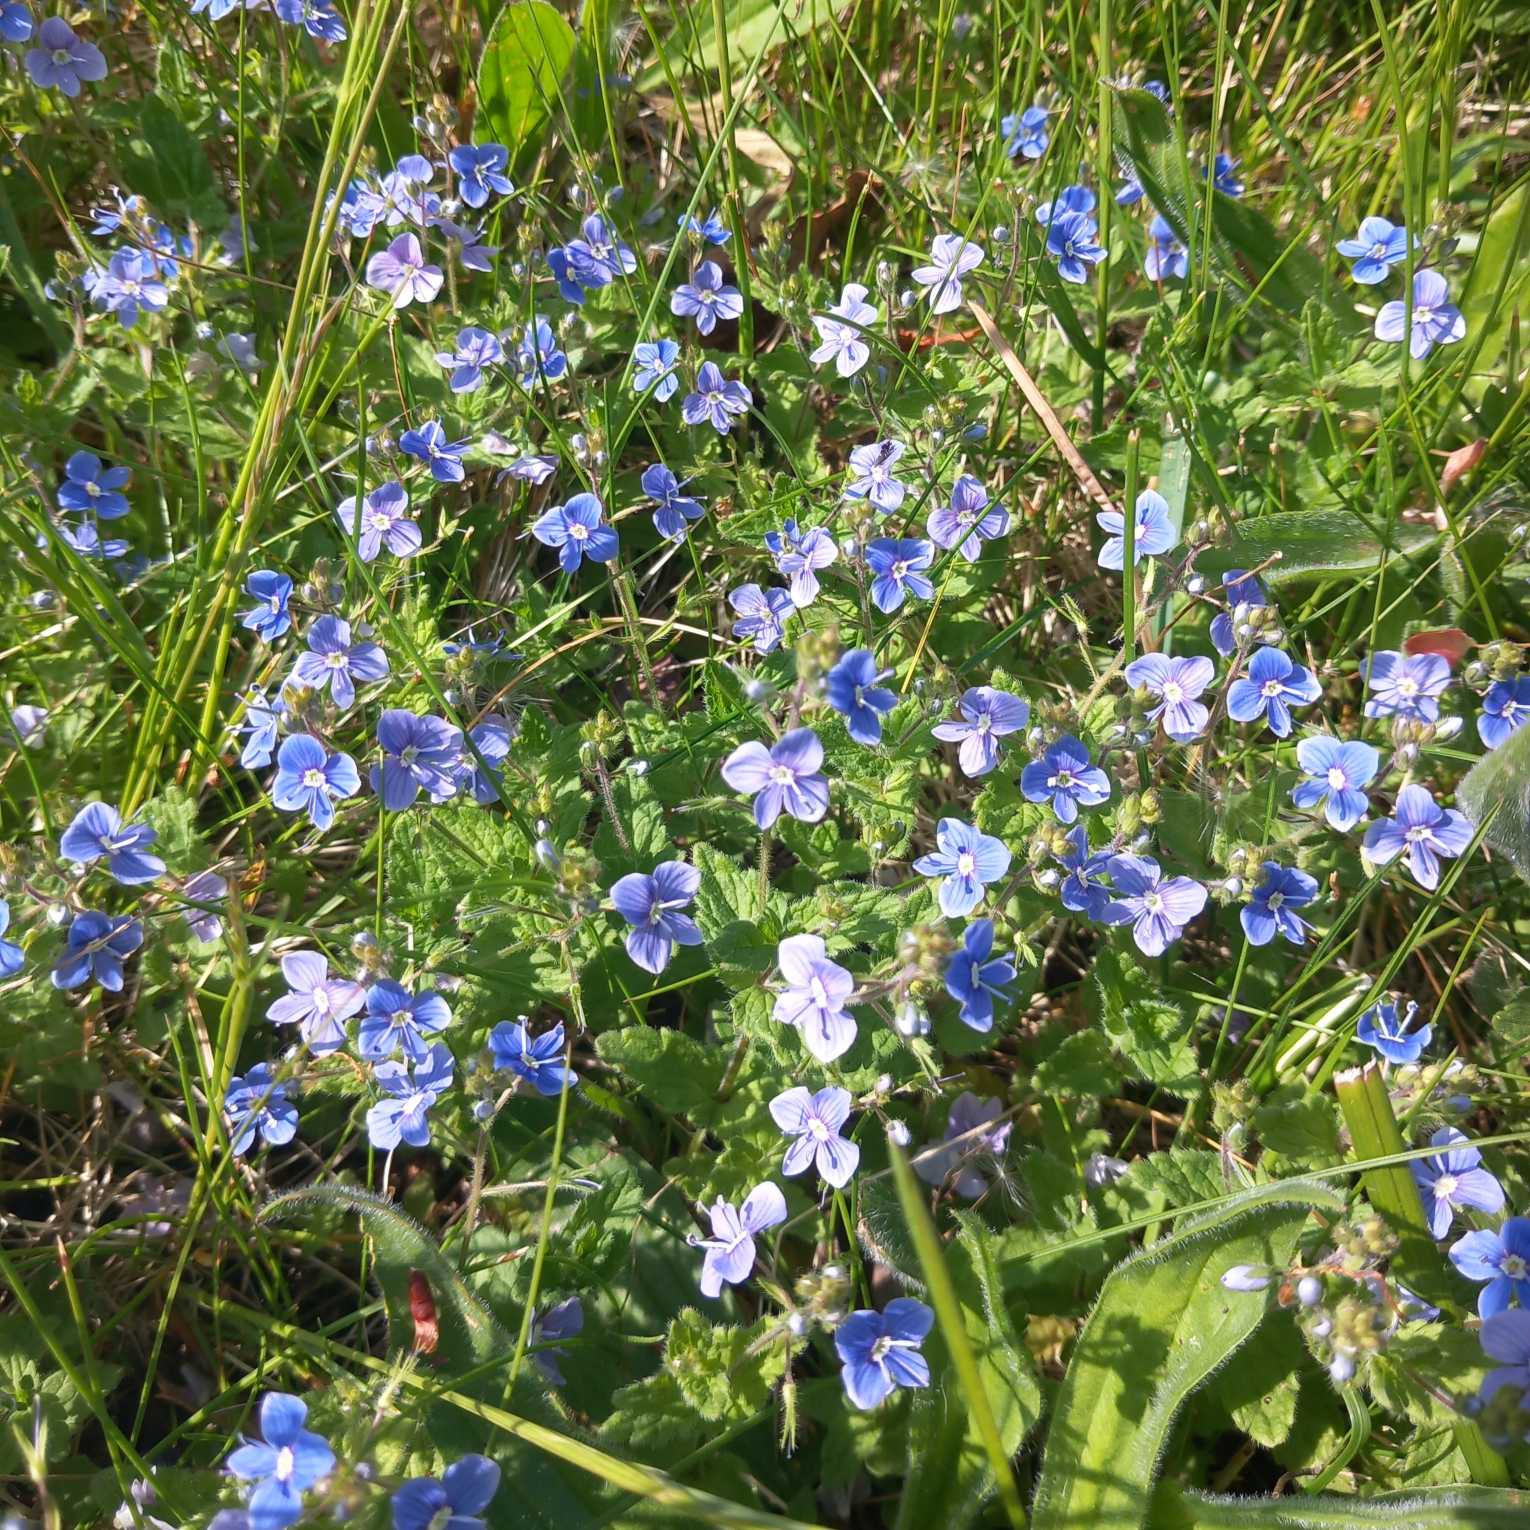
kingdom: Plantae
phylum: Tracheophyta
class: Magnoliopsida
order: Lamiales
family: Plantaginaceae
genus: Veronica
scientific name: Veronica chamaedrys
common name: Tveskægget ærenpris
